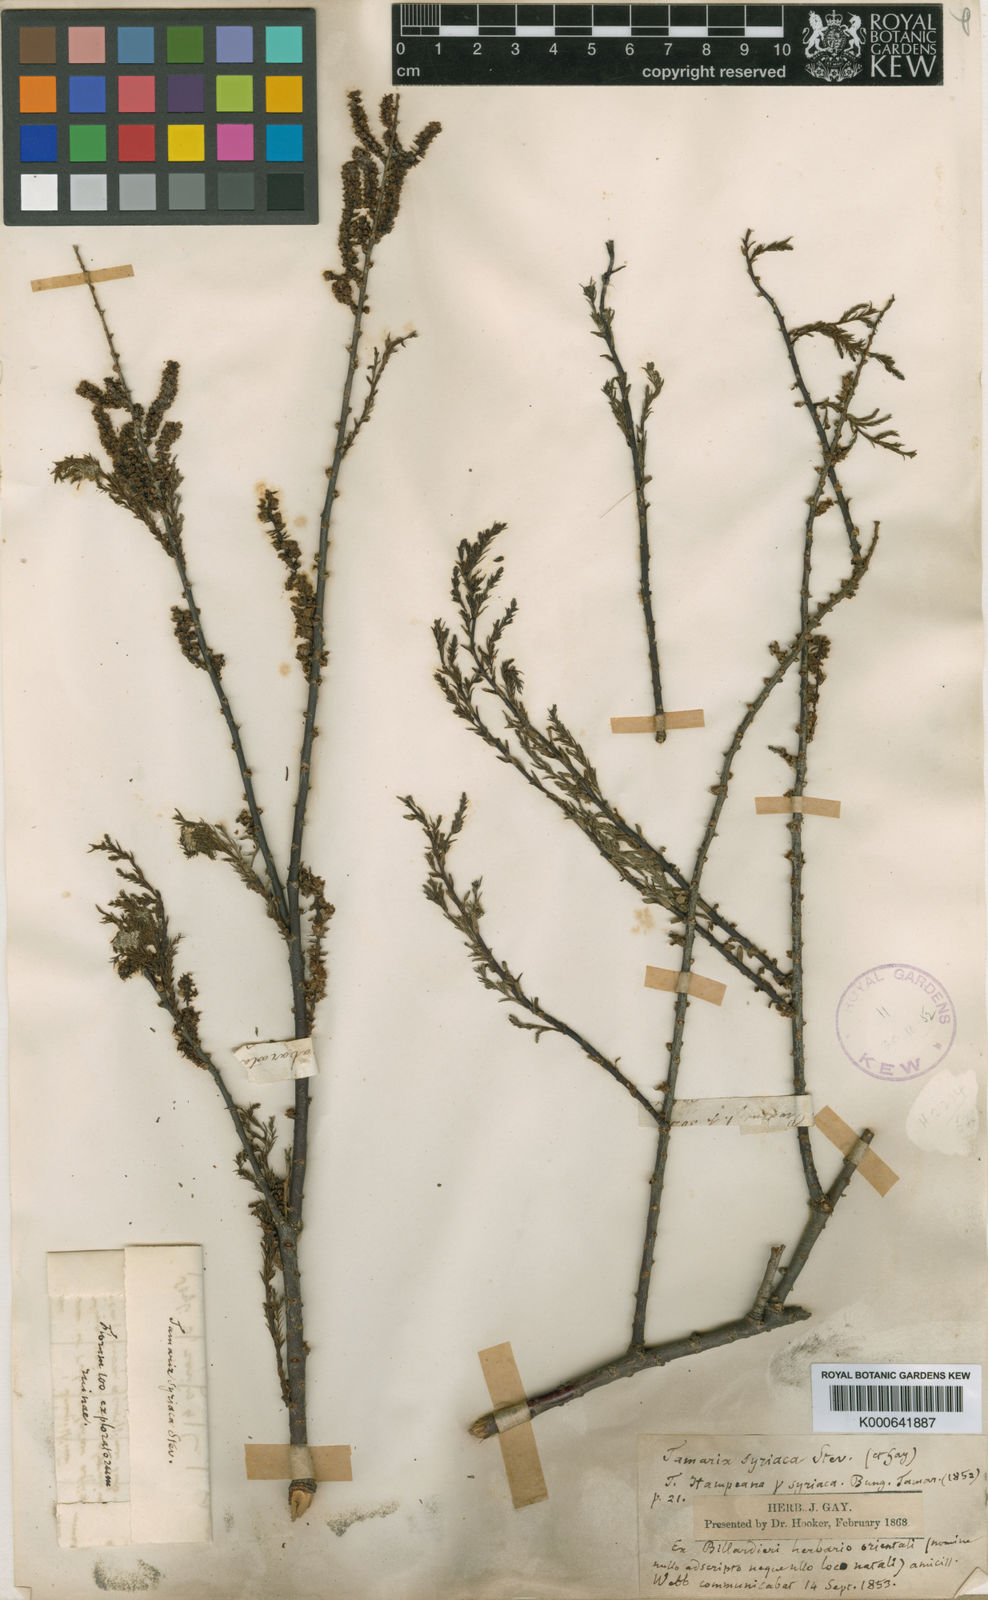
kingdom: Plantae
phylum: Tracheophyta
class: Magnoliopsida
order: Caryophyllales
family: Tamaricaceae
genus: Tamarix
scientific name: Tamarix
